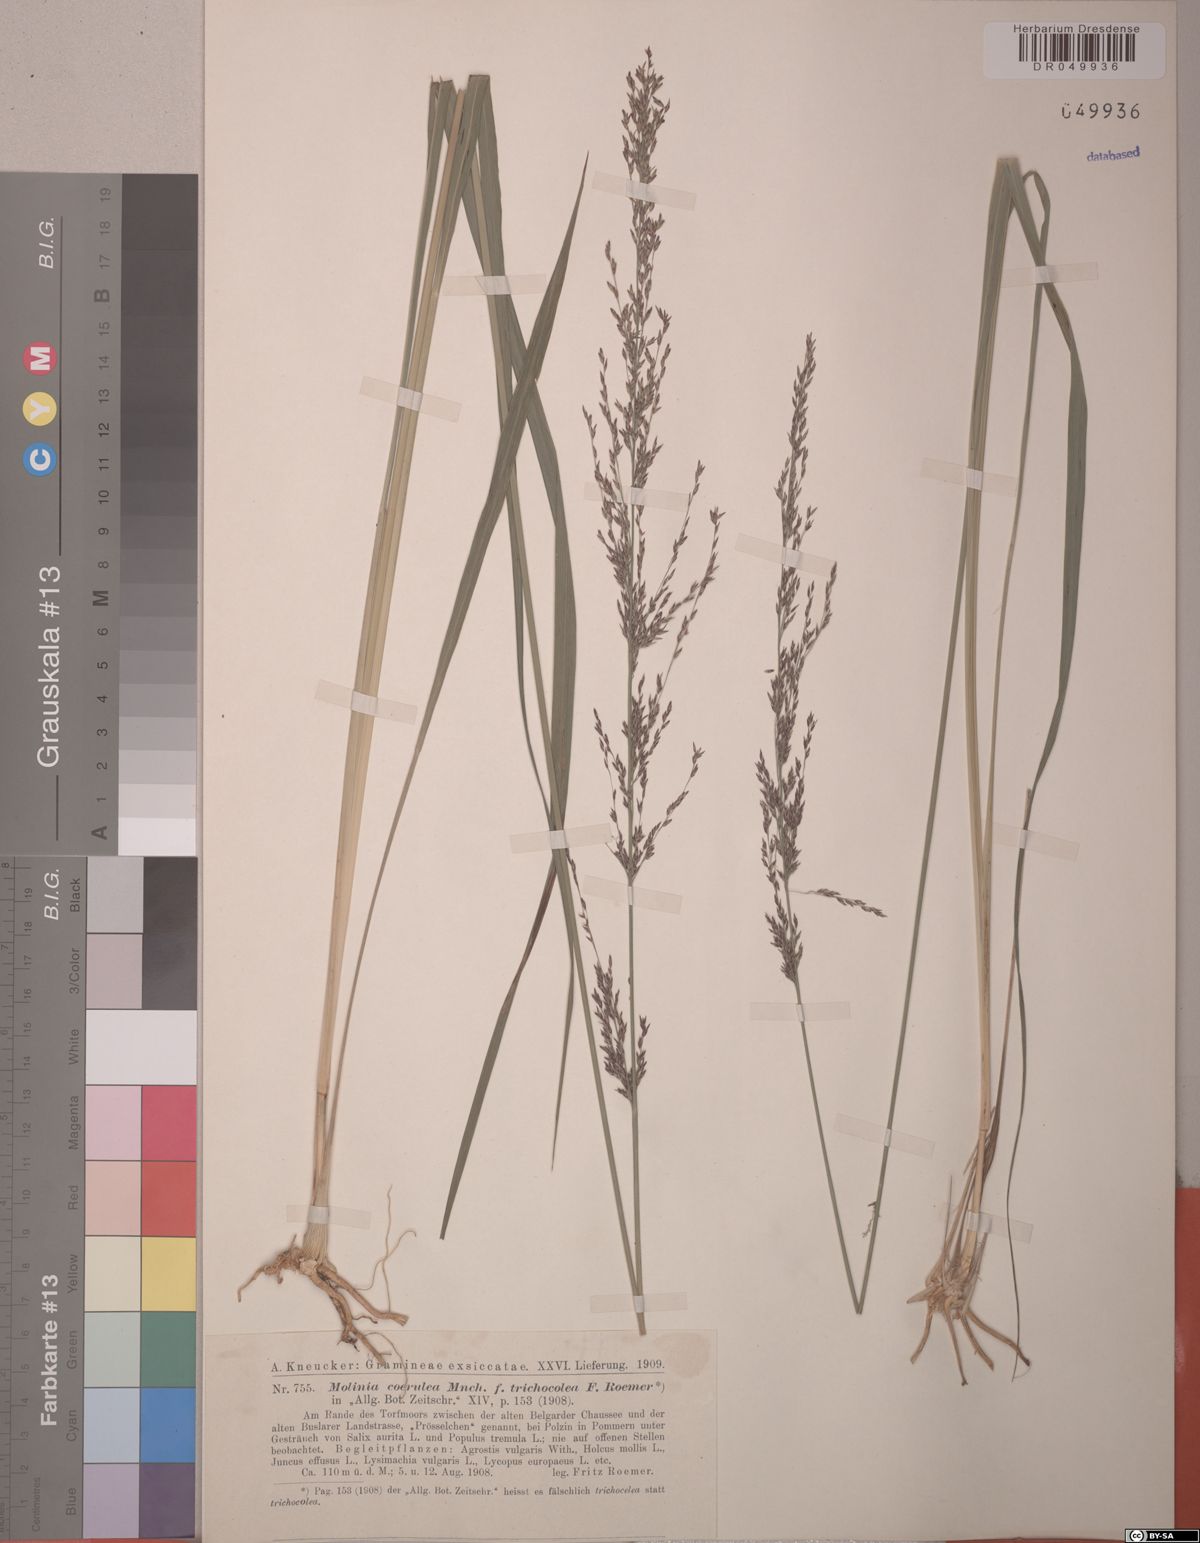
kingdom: Plantae
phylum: Tracheophyta
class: Liliopsida
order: Poales
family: Poaceae
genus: Molinia
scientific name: Molinia caerulea
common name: Purple moor-grass
